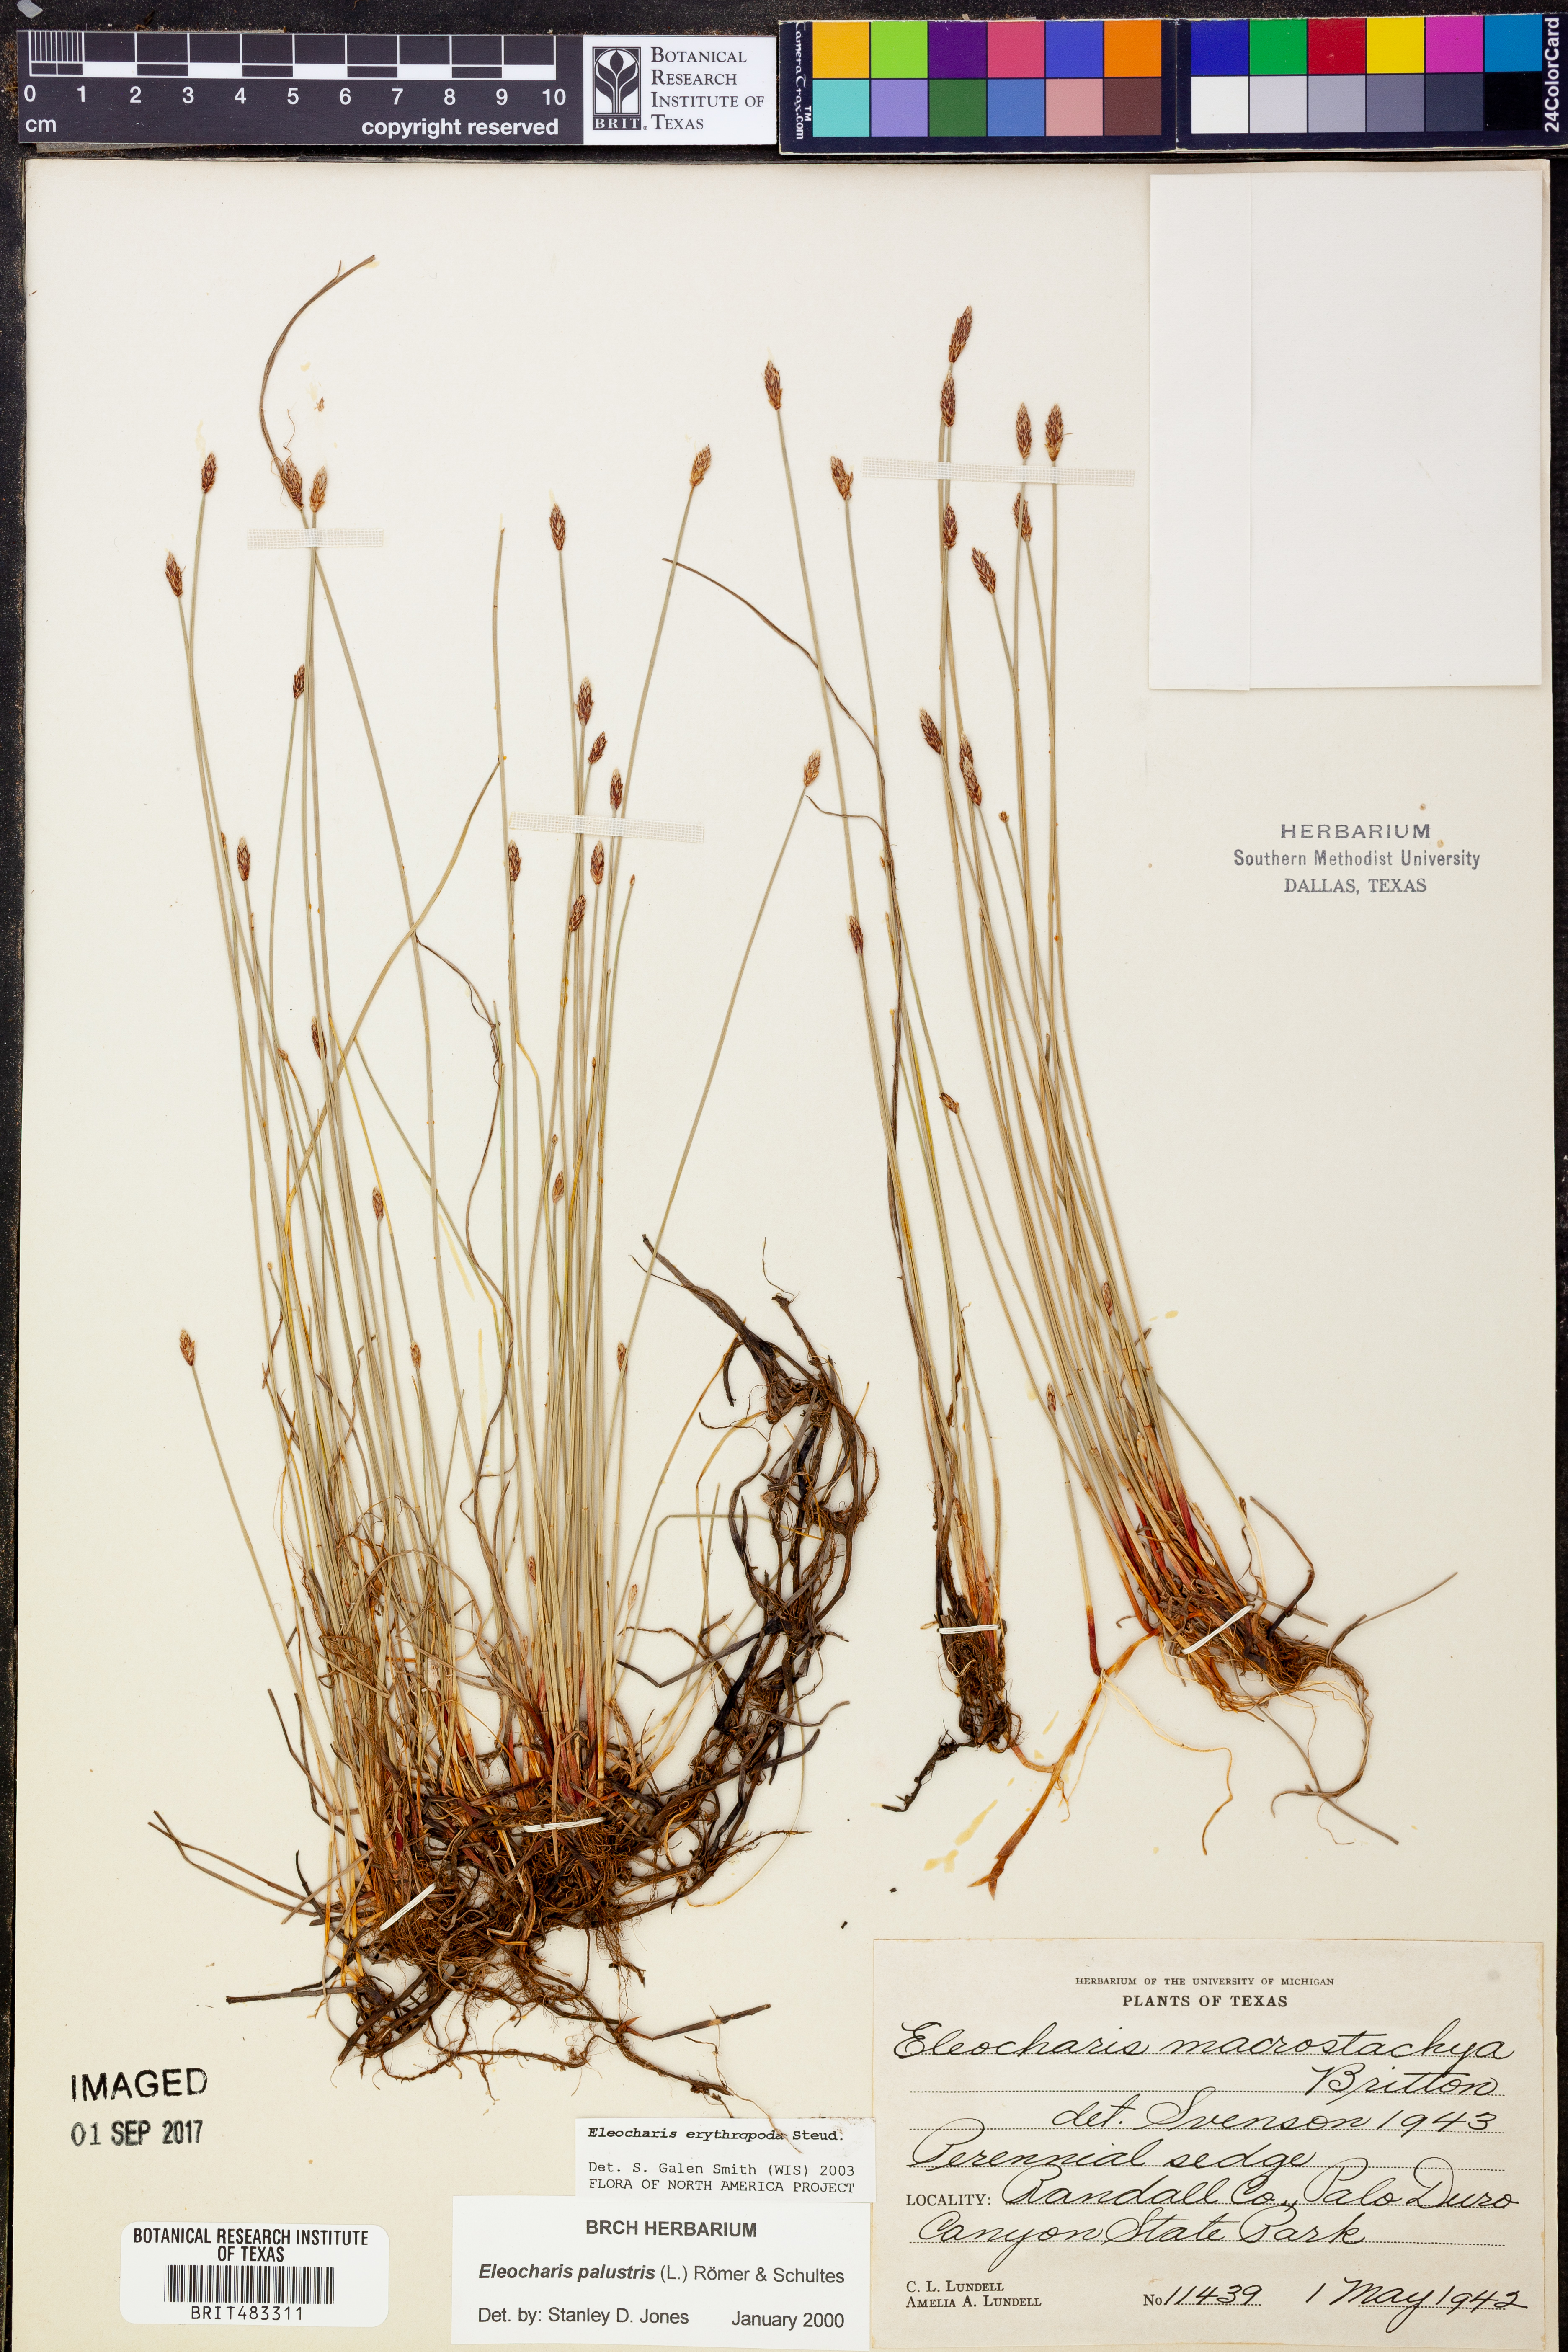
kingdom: Plantae
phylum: Tracheophyta
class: Liliopsida
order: Poales
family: Cyperaceae
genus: Eleocharis
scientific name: Eleocharis erythropoda
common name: Bald spikerush
